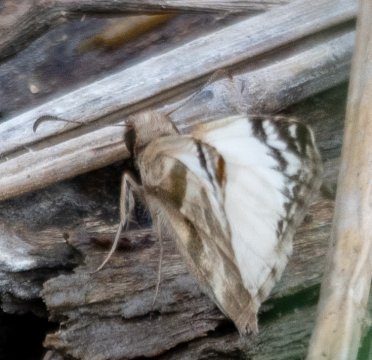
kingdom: Animalia
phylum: Arthropoda
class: Insecta
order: Lepidoptera
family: Hesperiidae
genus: Heliopetes
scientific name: Heliopetes laviana
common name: Laviana White-Skipper
